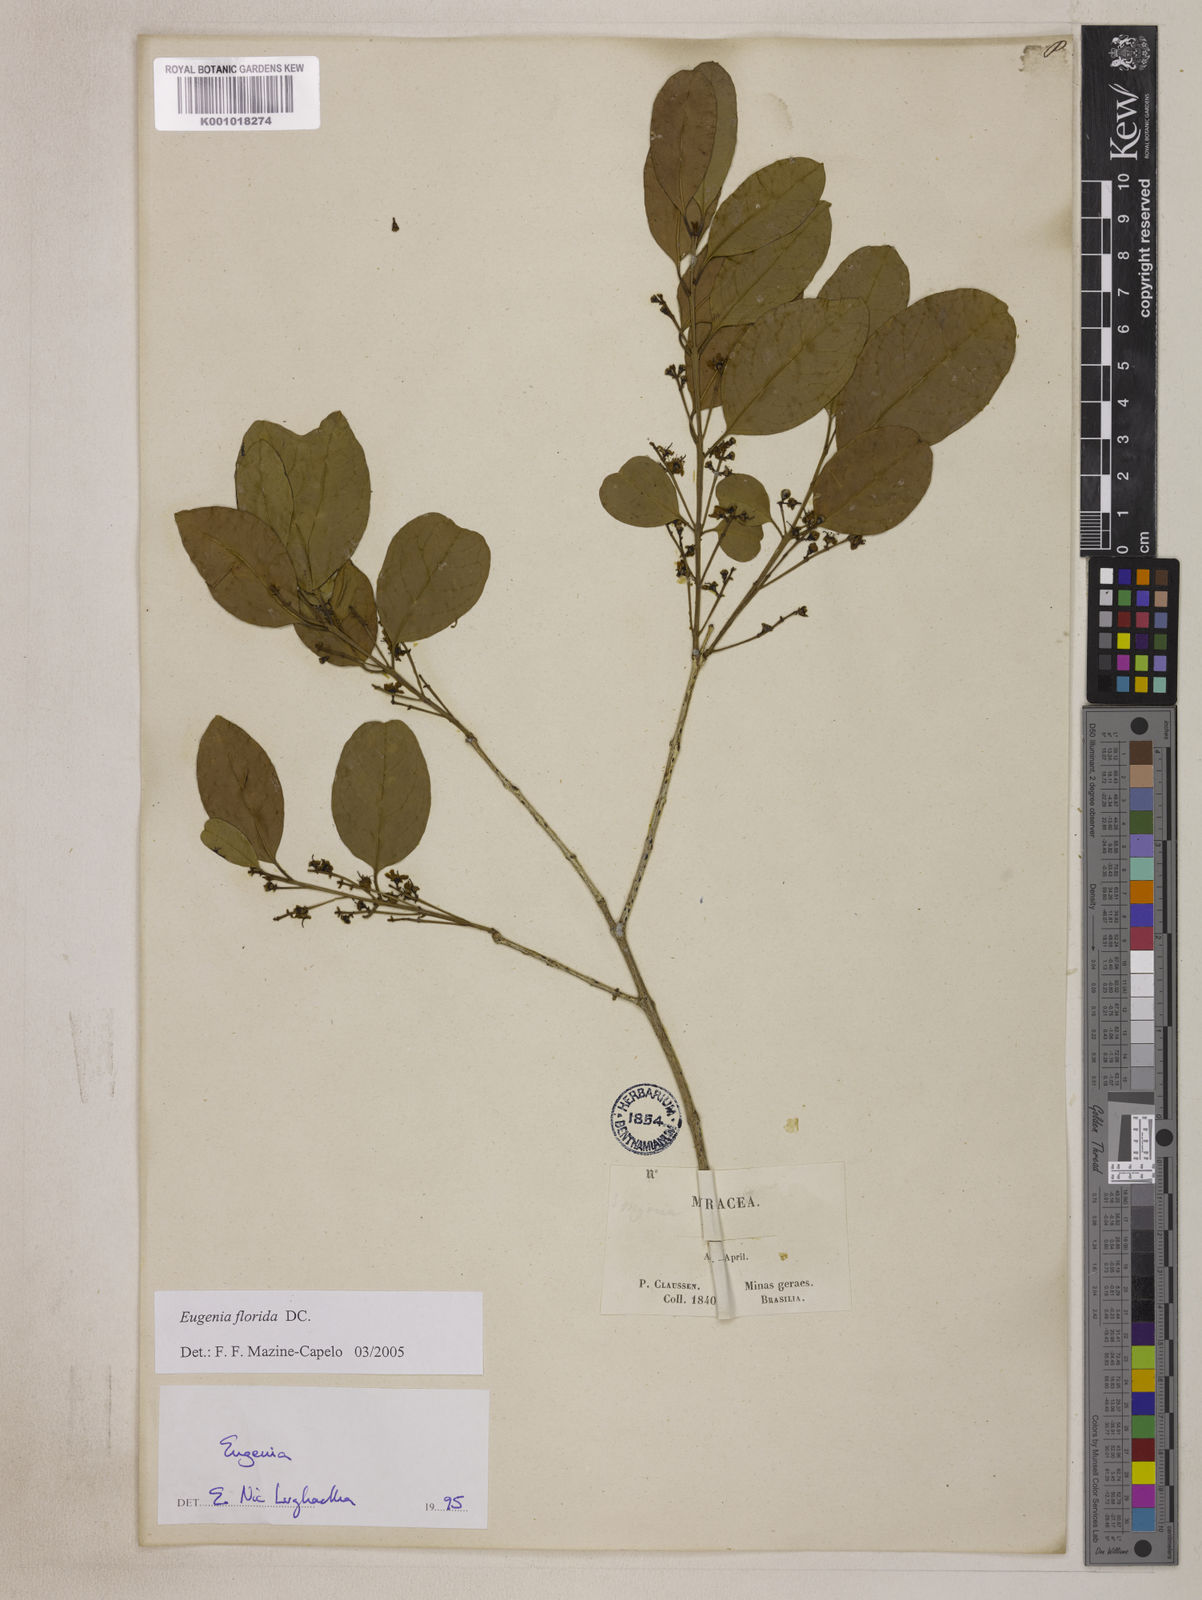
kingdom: Plantae
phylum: Tracheophyta
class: Magnoliopsida
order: Myrtales
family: Myrtaceae
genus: Eugenia
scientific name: Eugenia florida
